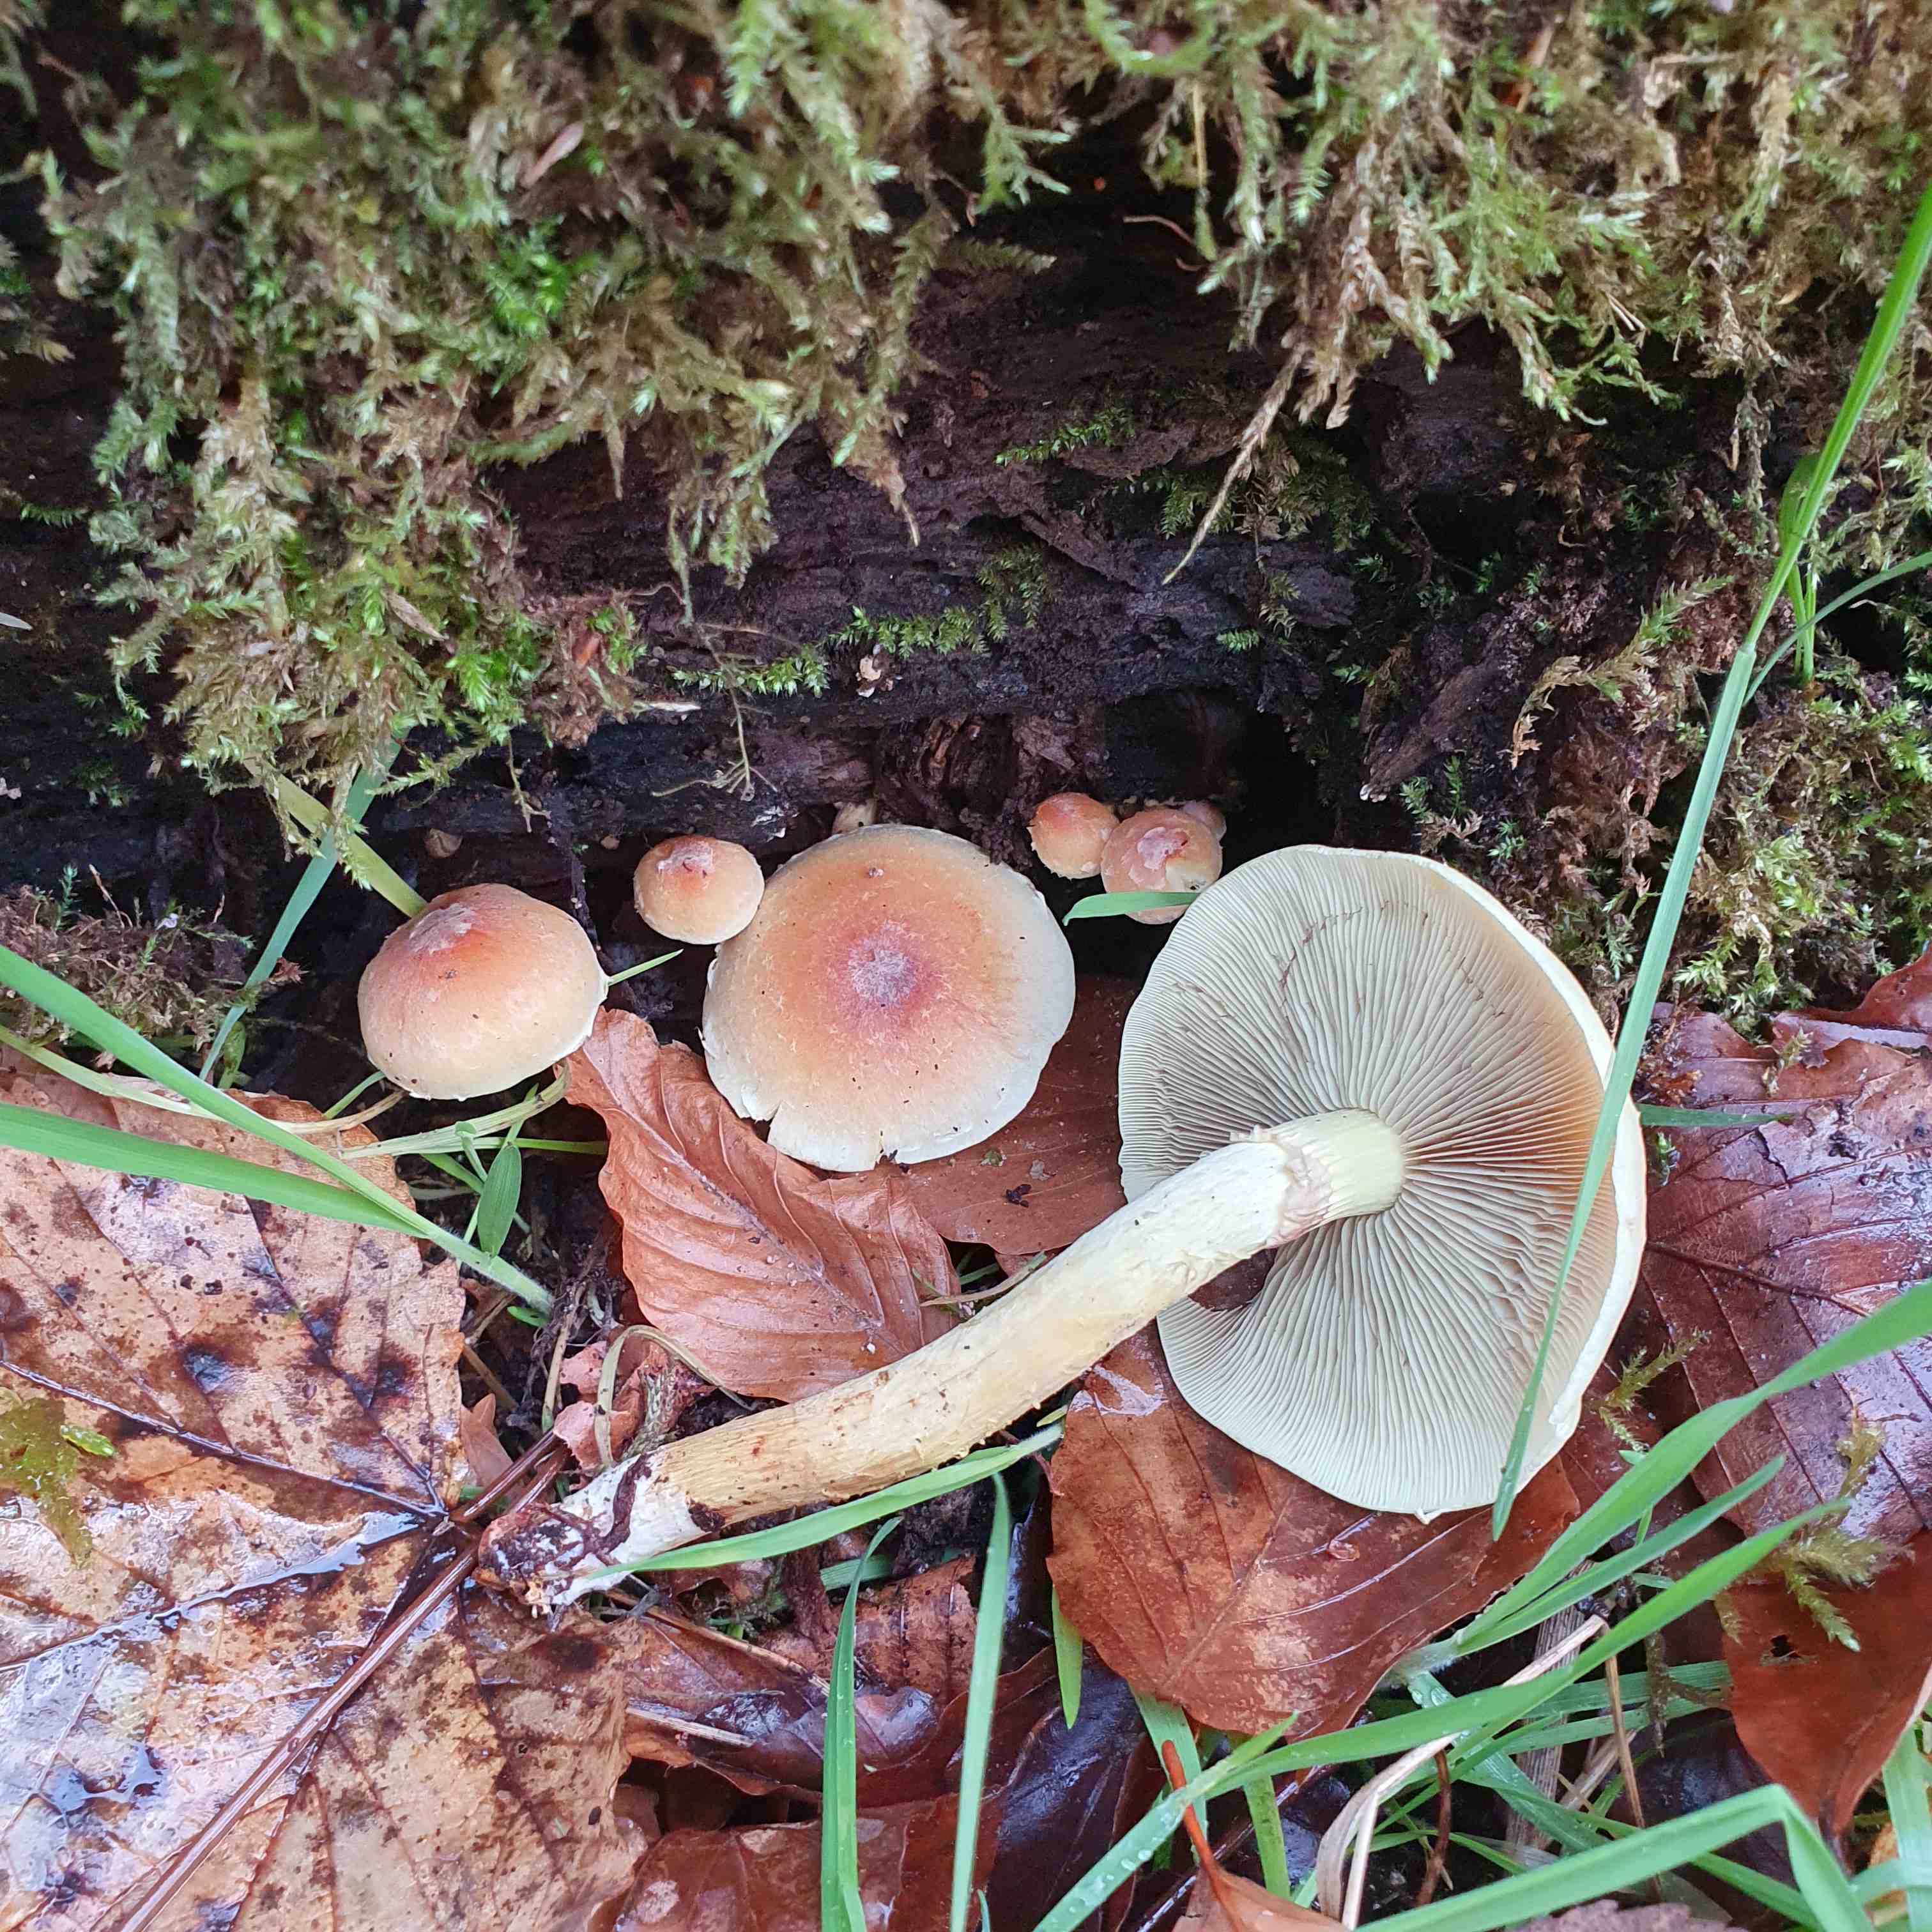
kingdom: Fungi
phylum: Basidiomycota
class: Agaricomycetes
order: Agaricales
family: Strophariaceae
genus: Hypholoma
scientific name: Hypholoma lateritium
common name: teglrød svovlhat
